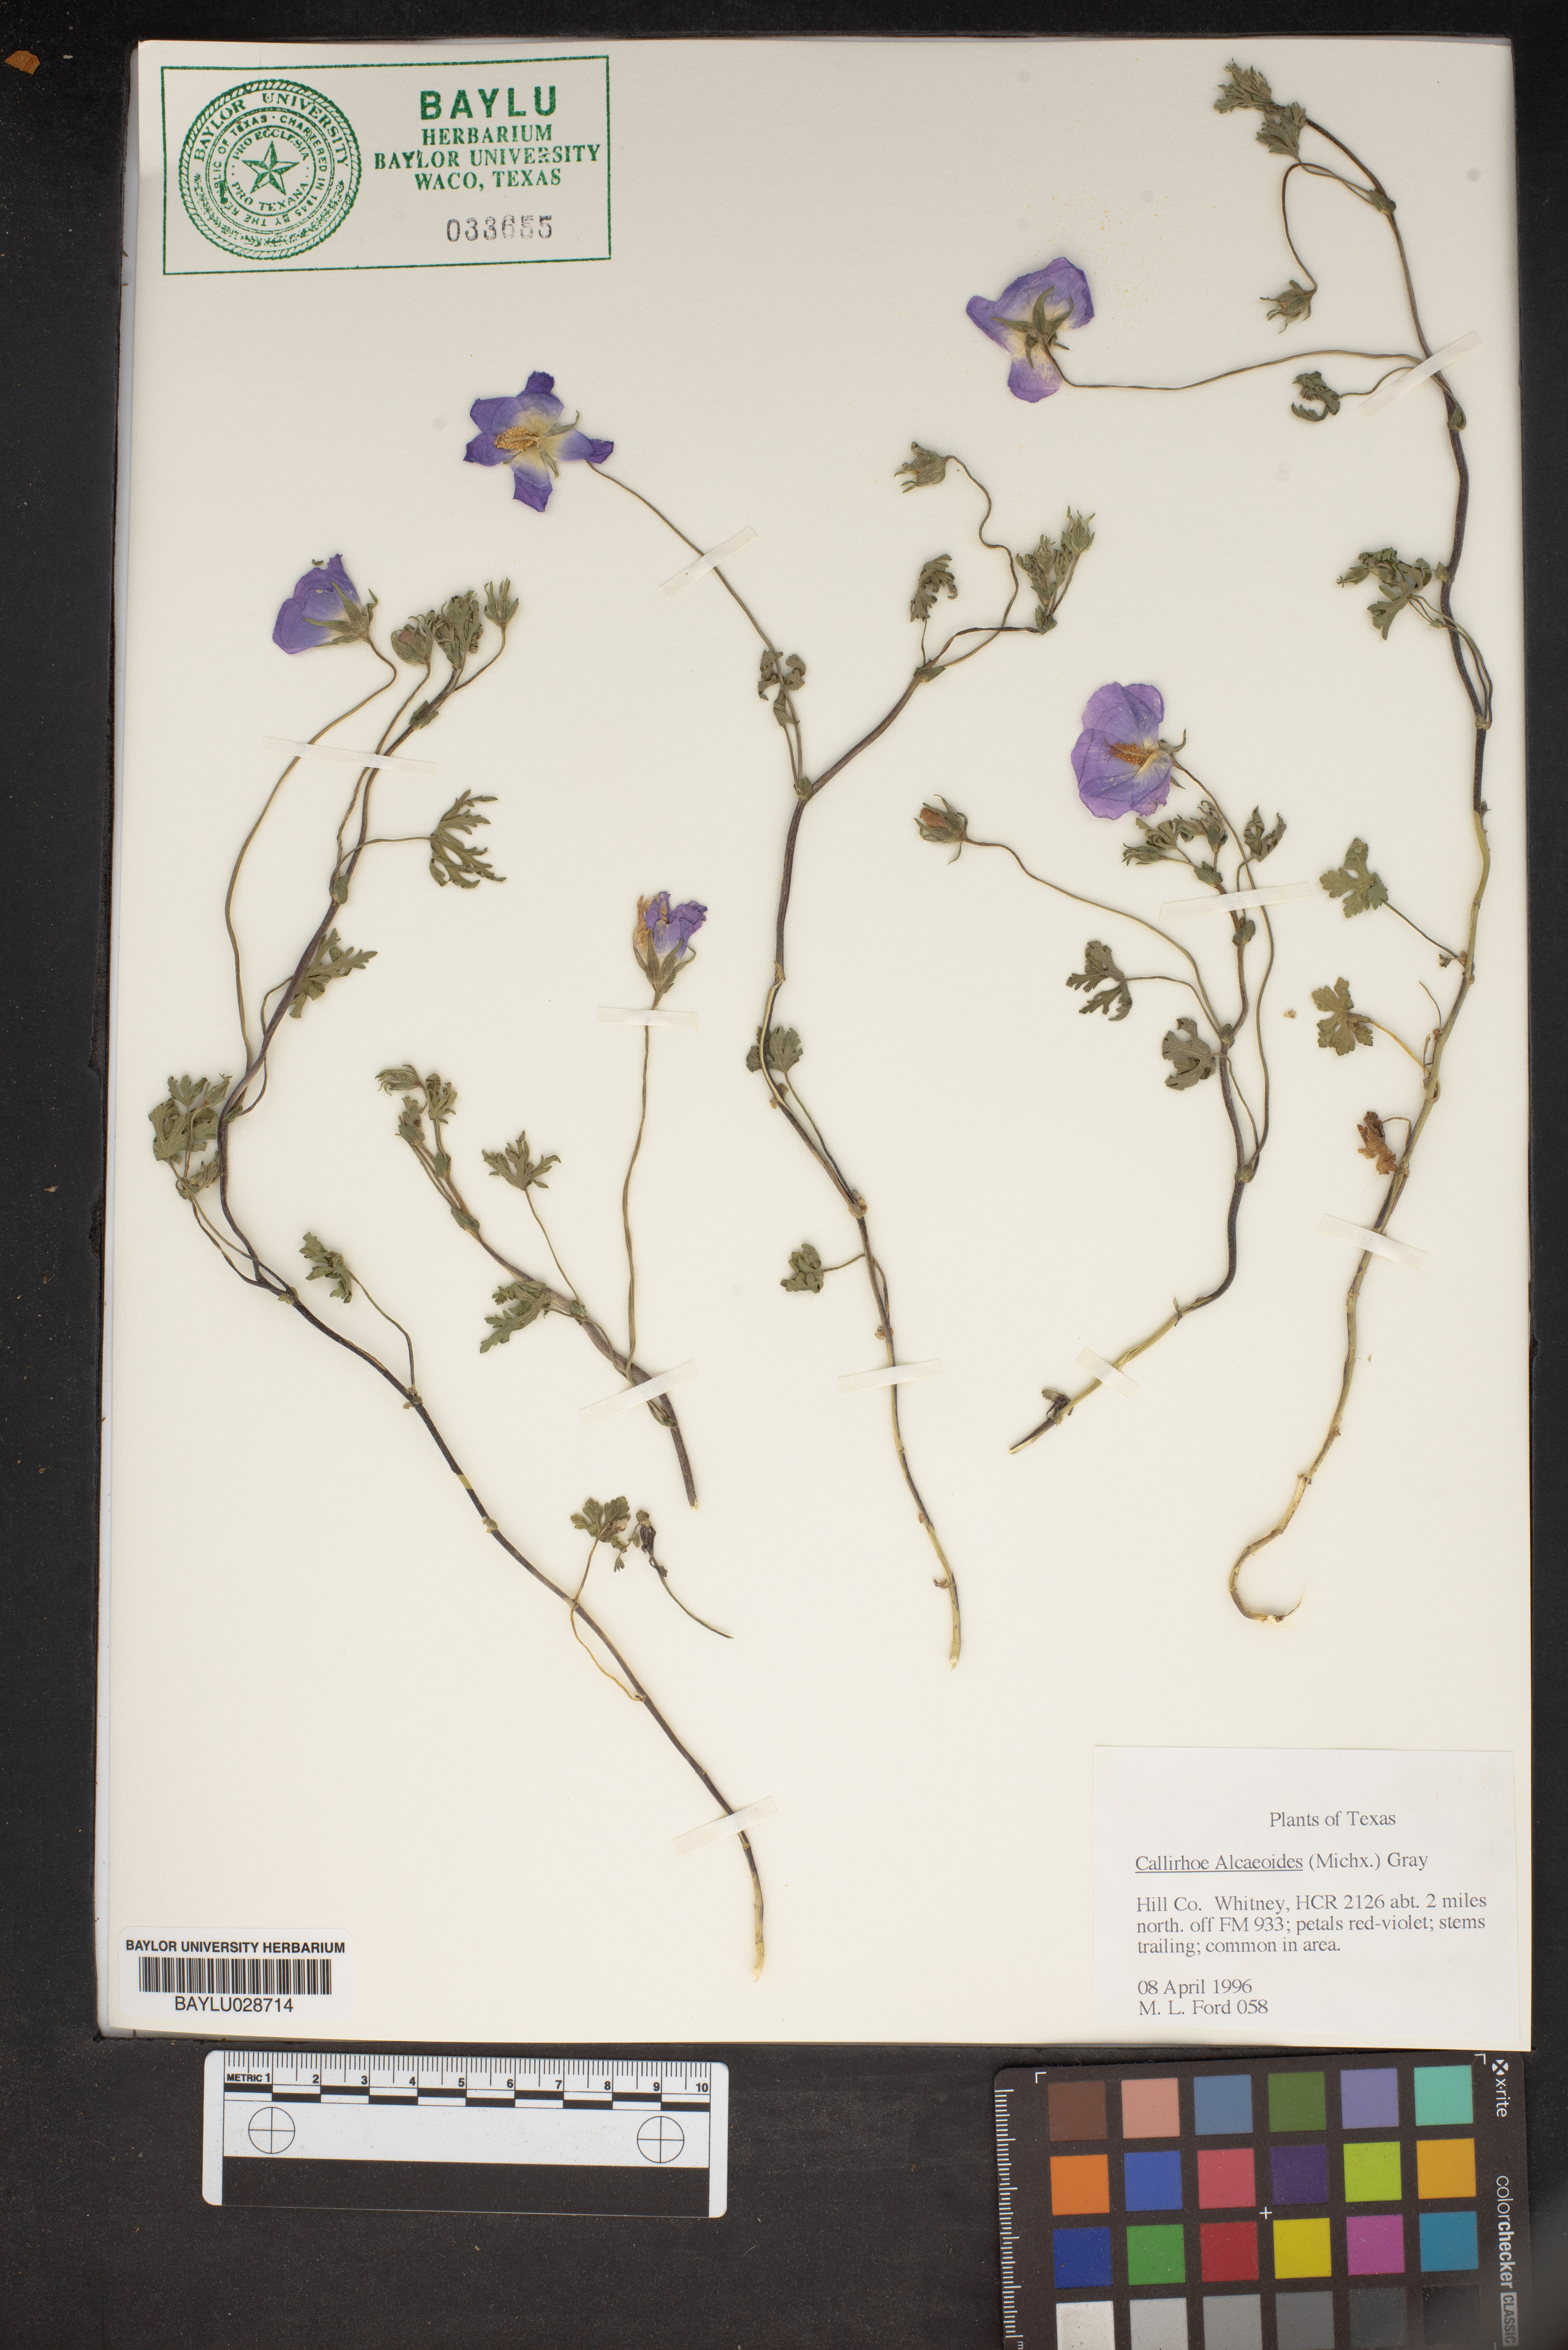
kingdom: Plantae
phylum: Tracheophyta
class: Magnoliopsida
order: Malvales
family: Malvaceae
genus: Callirhoe
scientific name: Callirhoe alcaeoides
